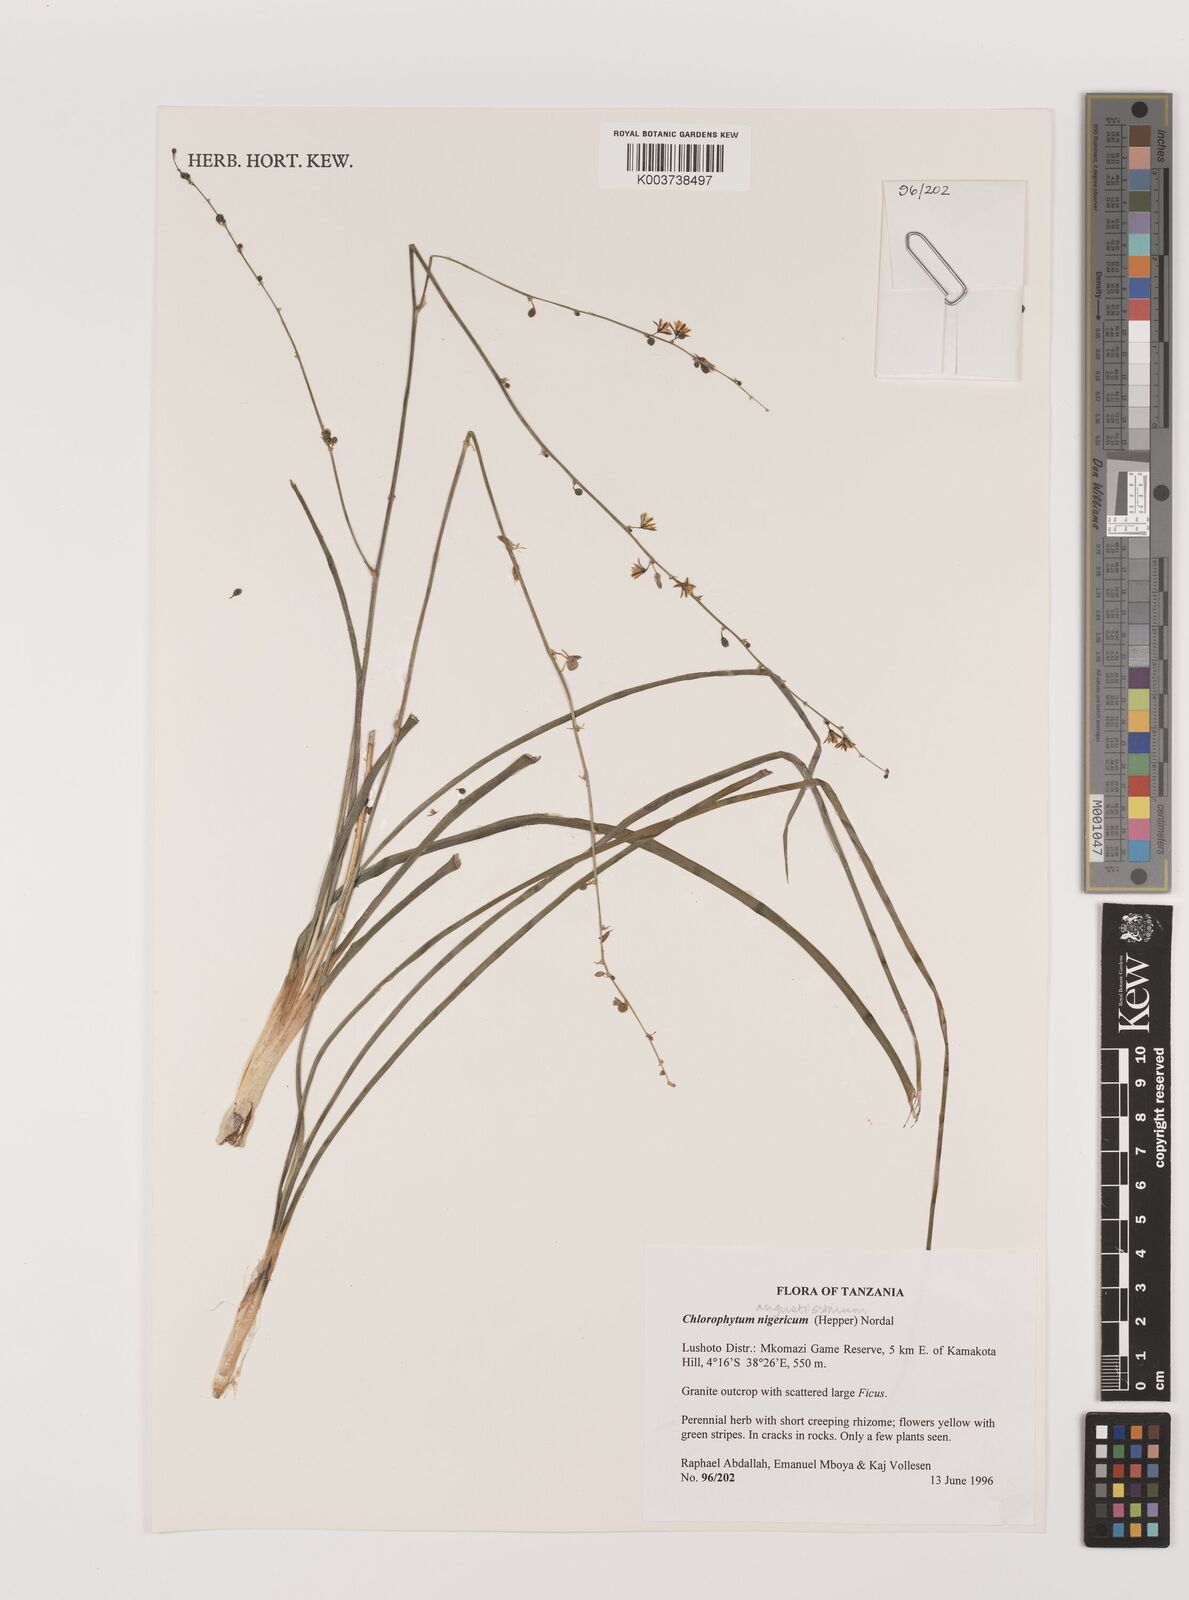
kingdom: Plantae
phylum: Tracheophyta
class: Liliopsida
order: Asparagales
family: Asparagaceae
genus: Chlorophytum
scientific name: Chlorophytum angustissimum
